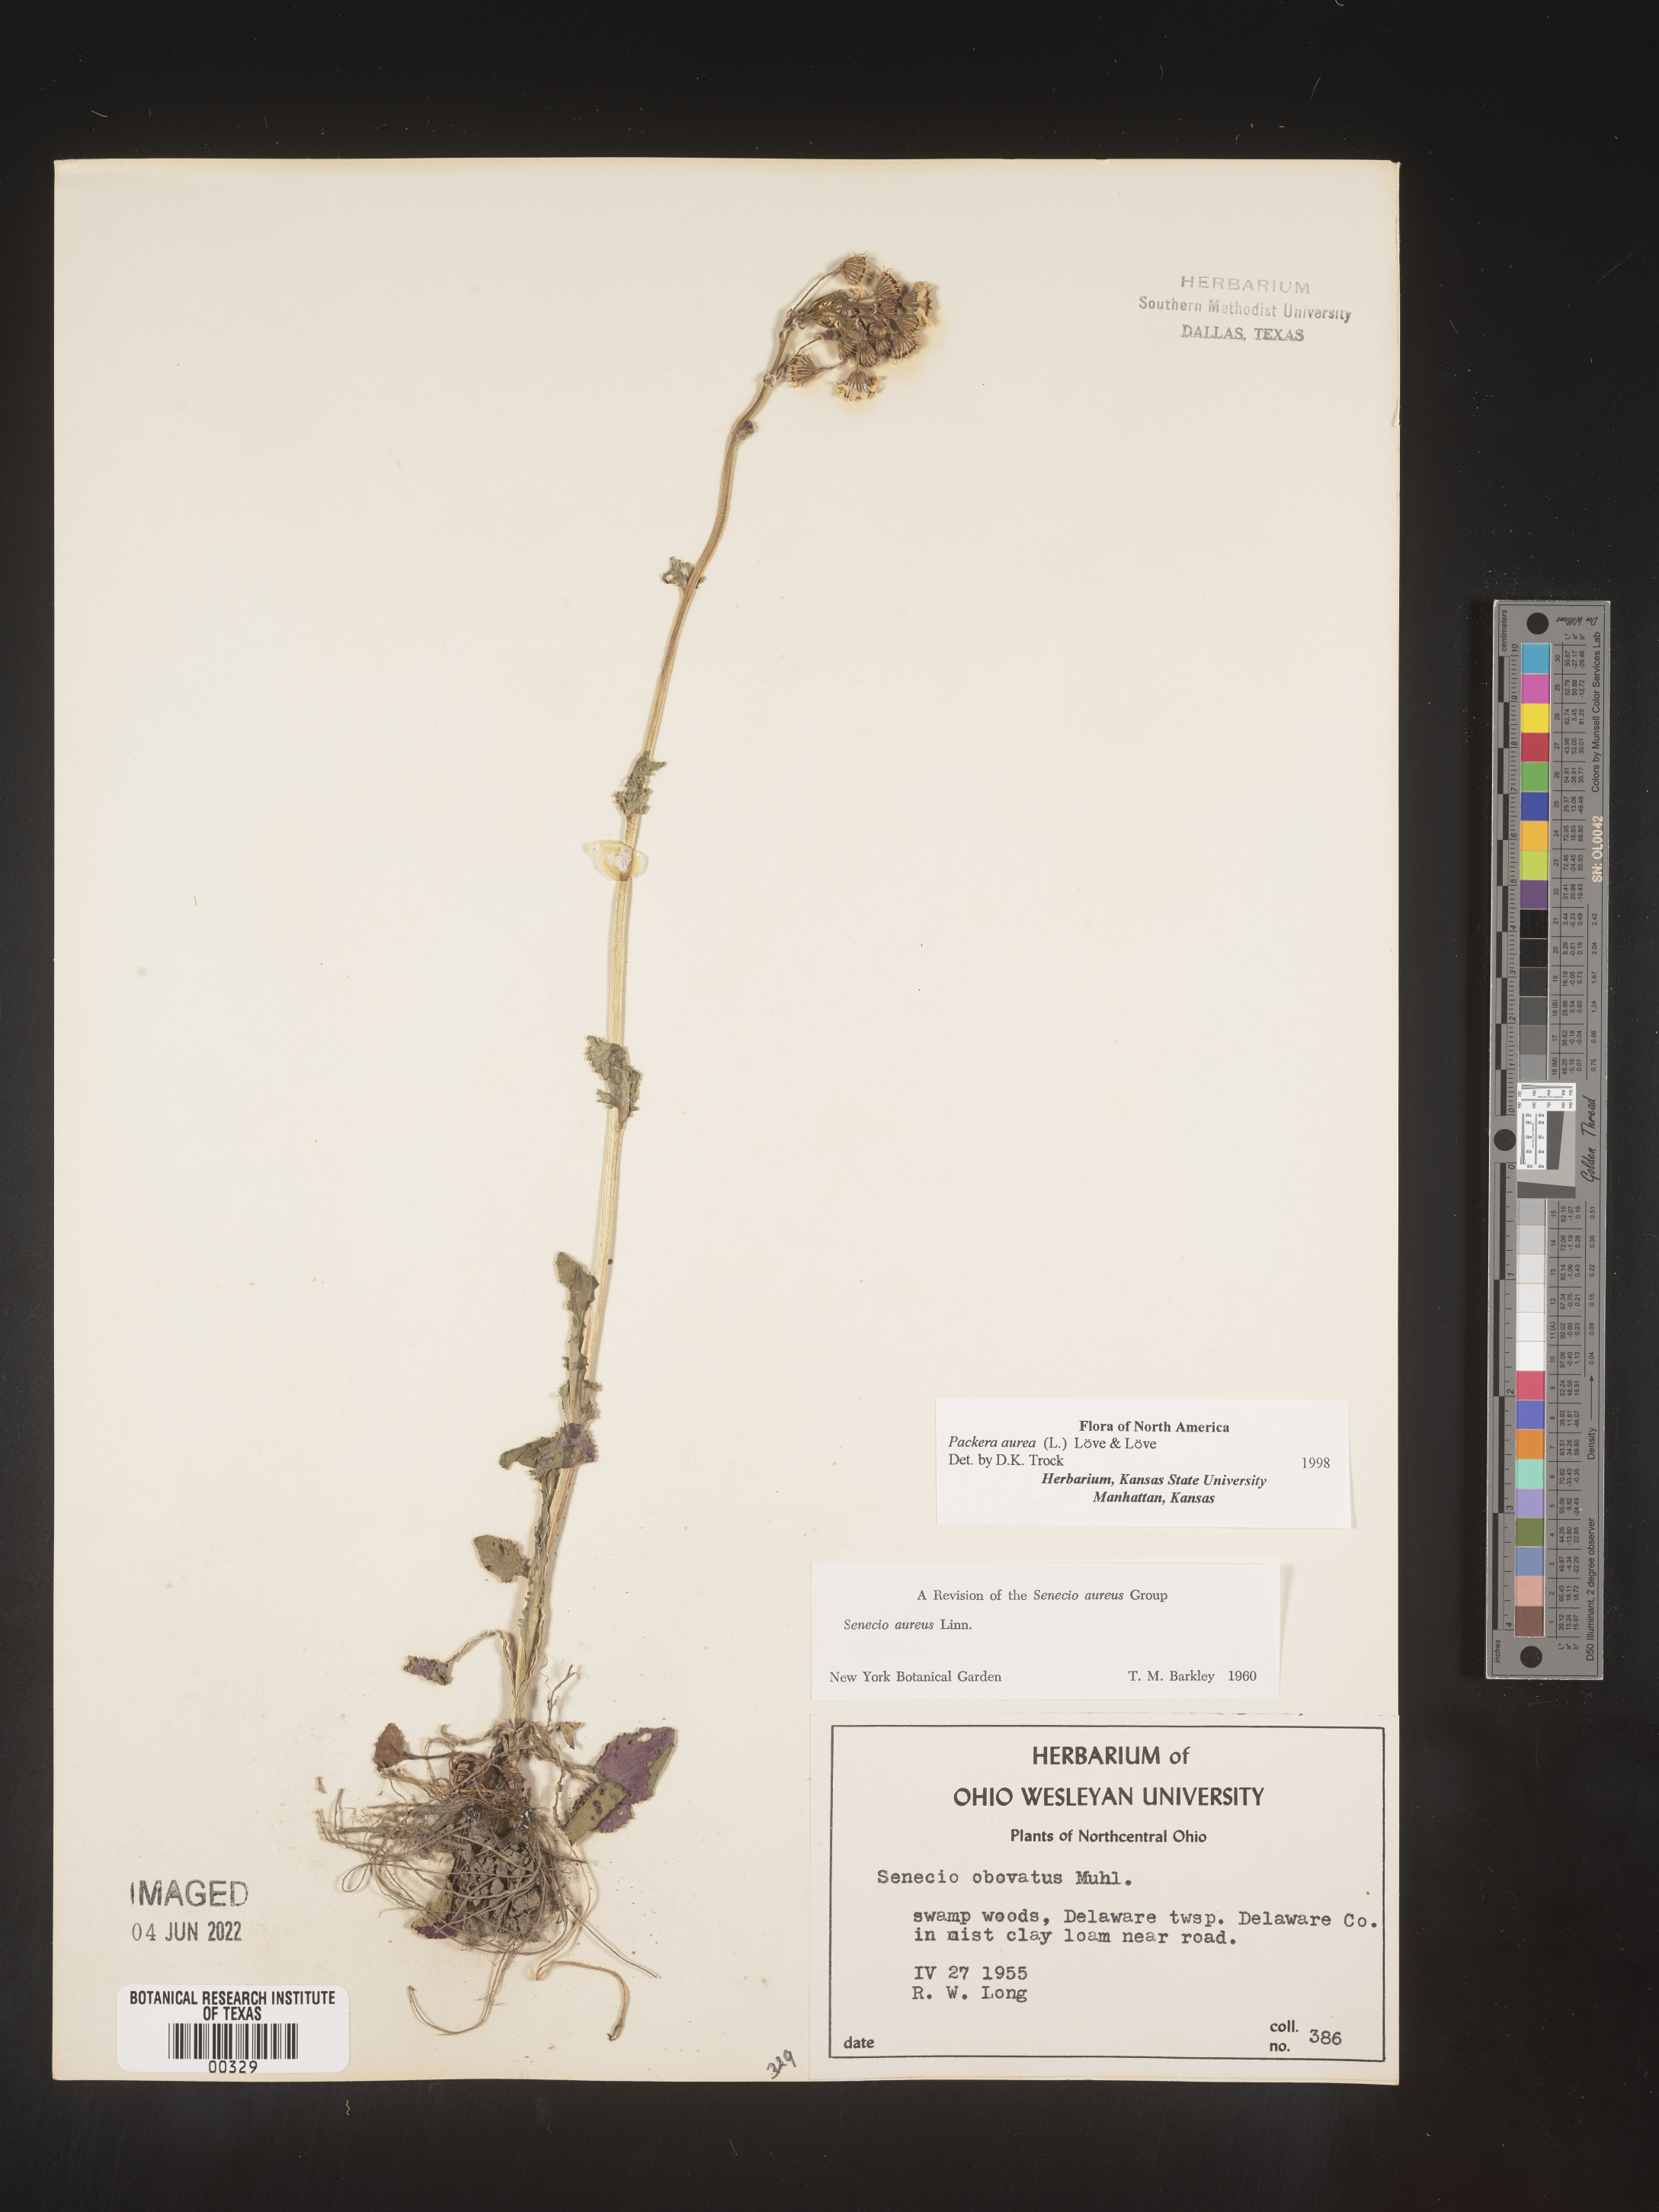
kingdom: Plantae
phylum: Tracheophyta
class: Magnoliopsida
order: Asterales
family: Asteraceae
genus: Packera
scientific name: Packera aurea
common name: Golden groundsel
